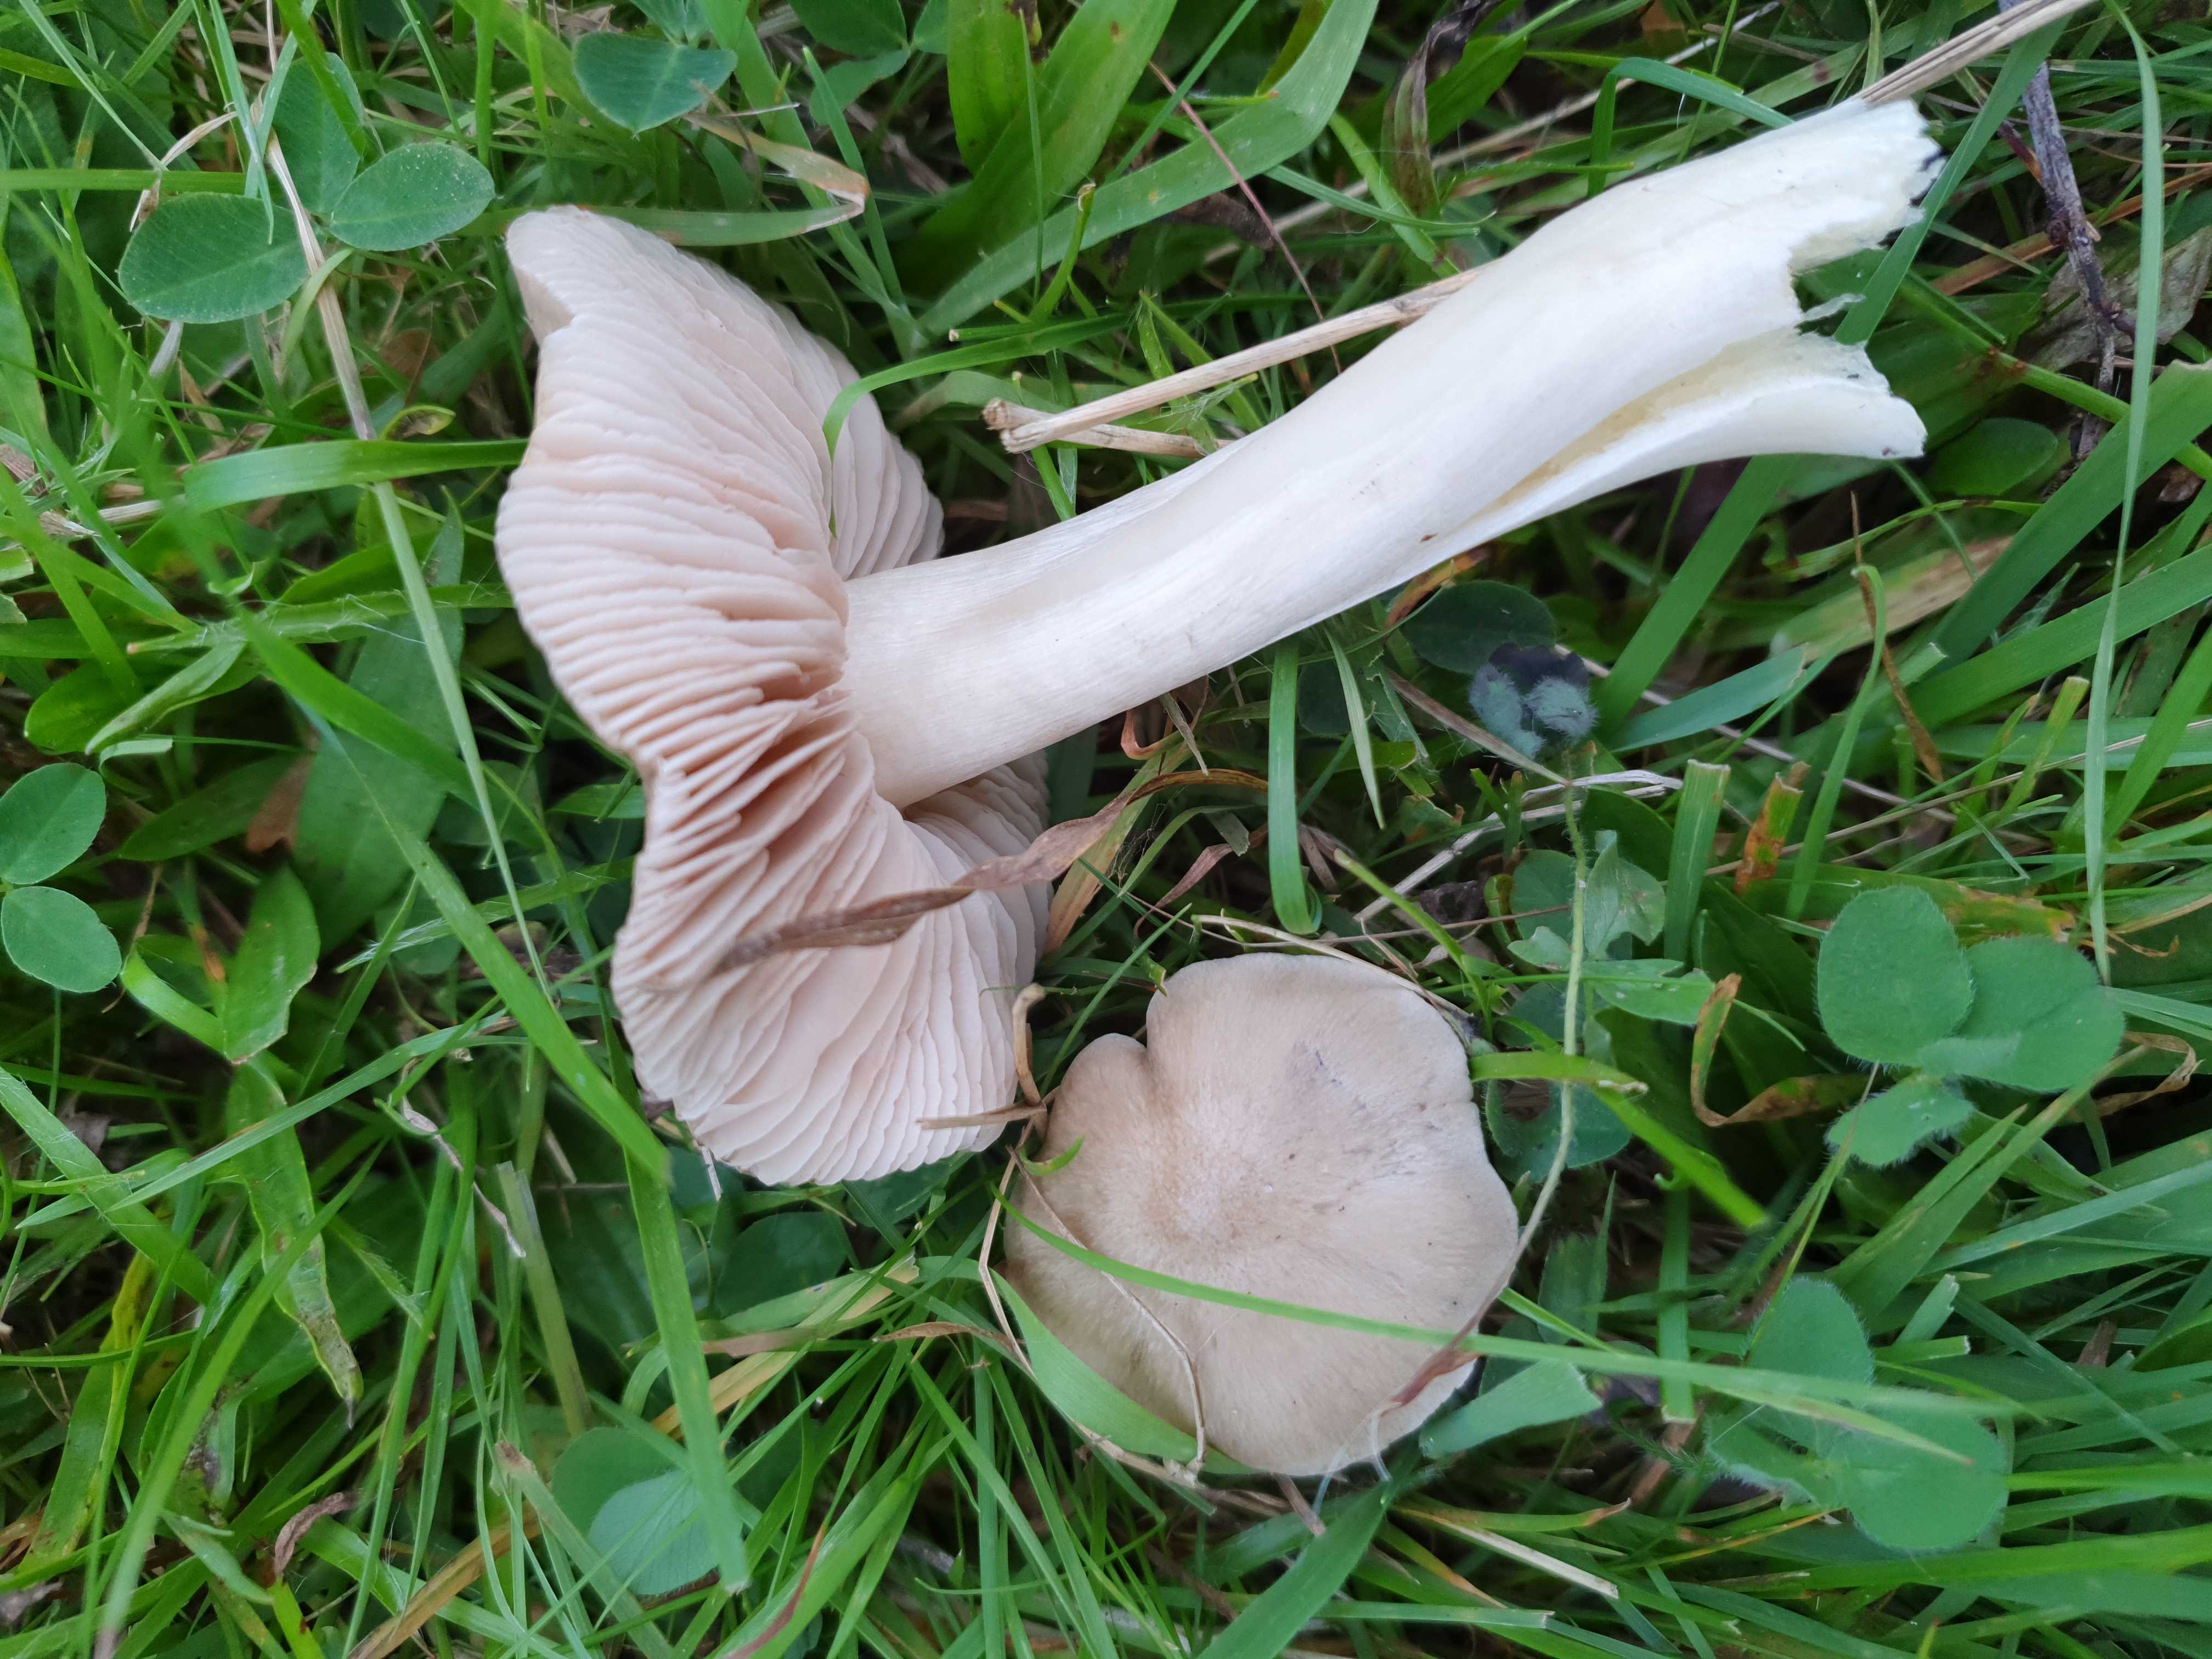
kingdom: Fungi
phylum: Basidiomycota
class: Agaricomycetes
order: Agaricales
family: Entolomataceae
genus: Entoloma
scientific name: Entoloma prunuloides
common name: mel-rødblad
